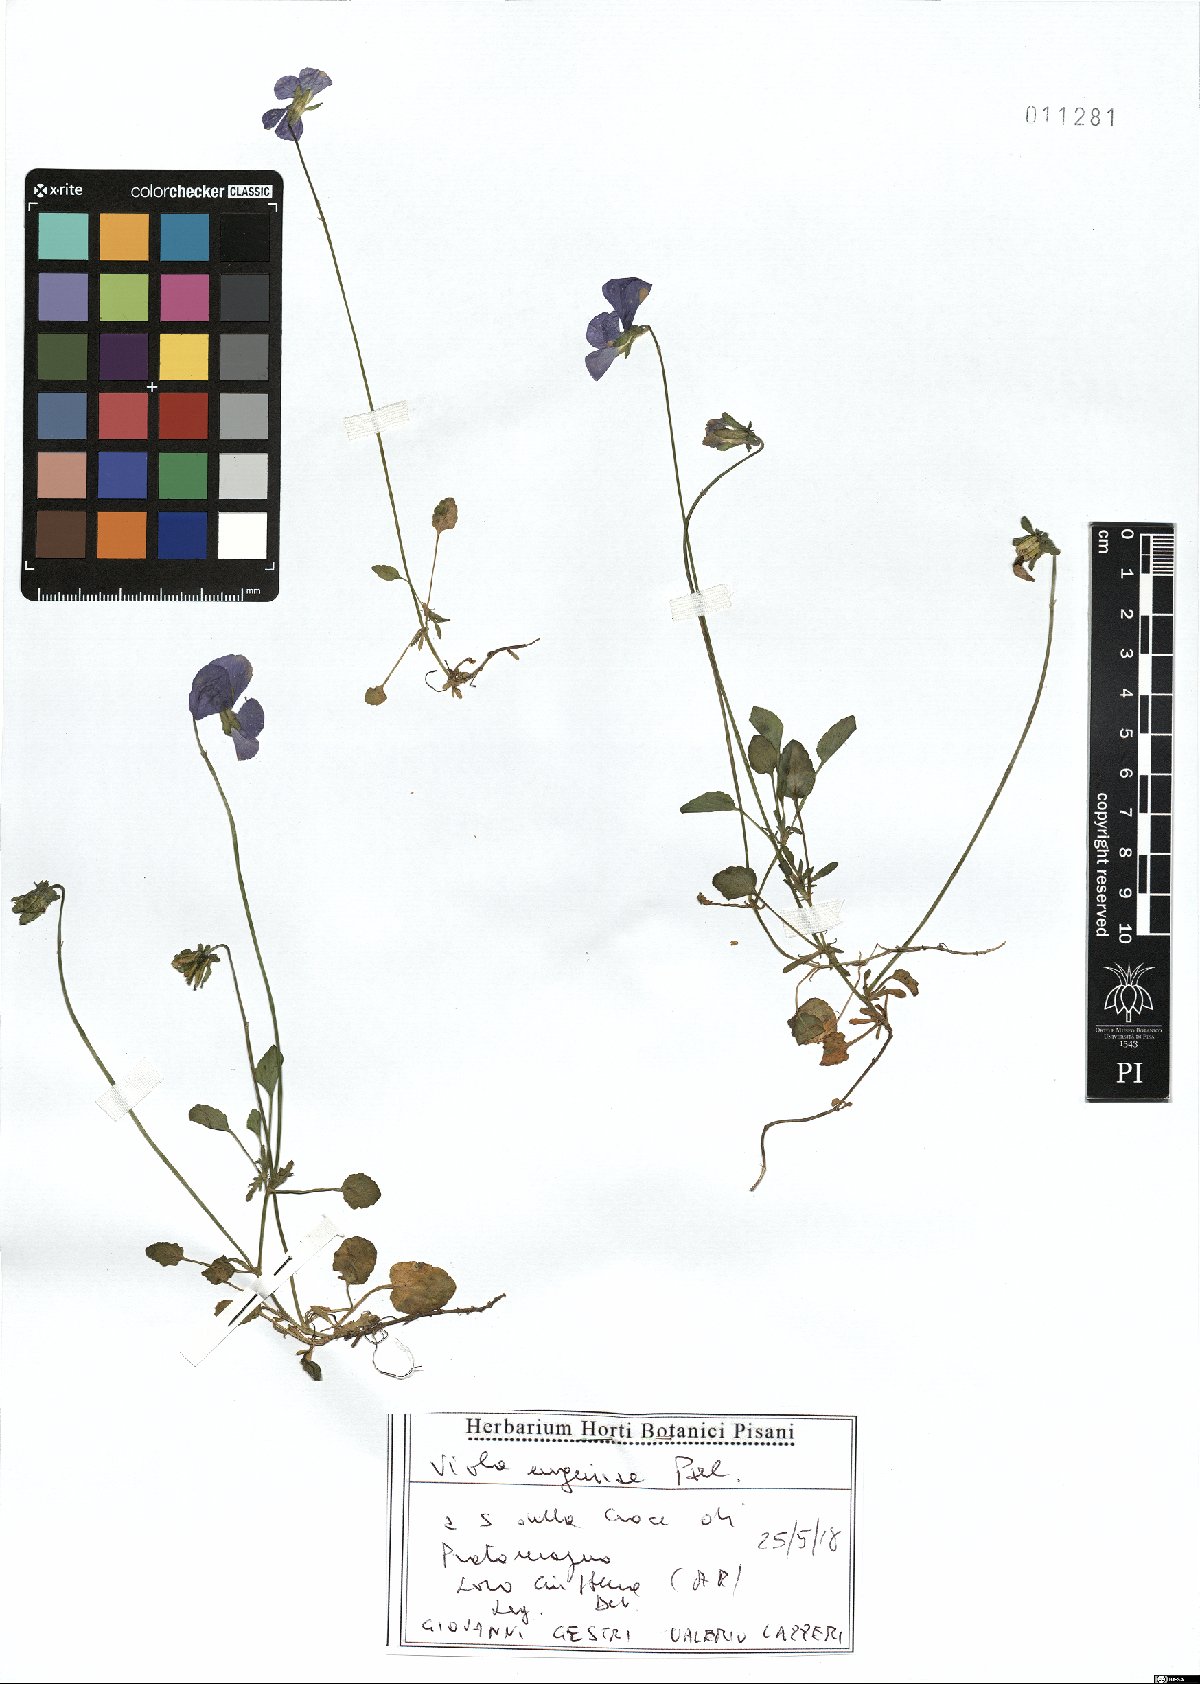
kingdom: Plantae
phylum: Tracheophyta
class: Magnoliopsida
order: Malpighiales
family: Violaceae
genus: Viola
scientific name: Viola eugeniae
